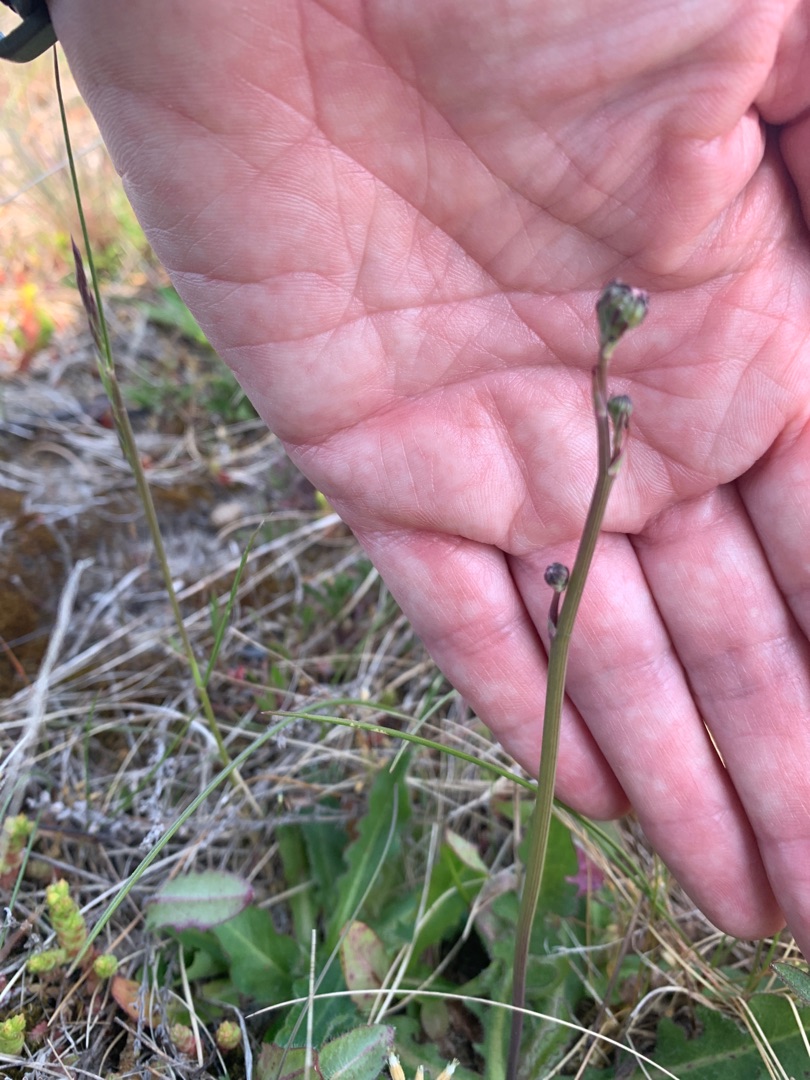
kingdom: Plantae
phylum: Tracheophyta
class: Magnoliopsida
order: Asterales
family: Asteraceae
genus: Hypochaeris
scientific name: Hypochaeris radicata
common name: Almindelig kongepen
